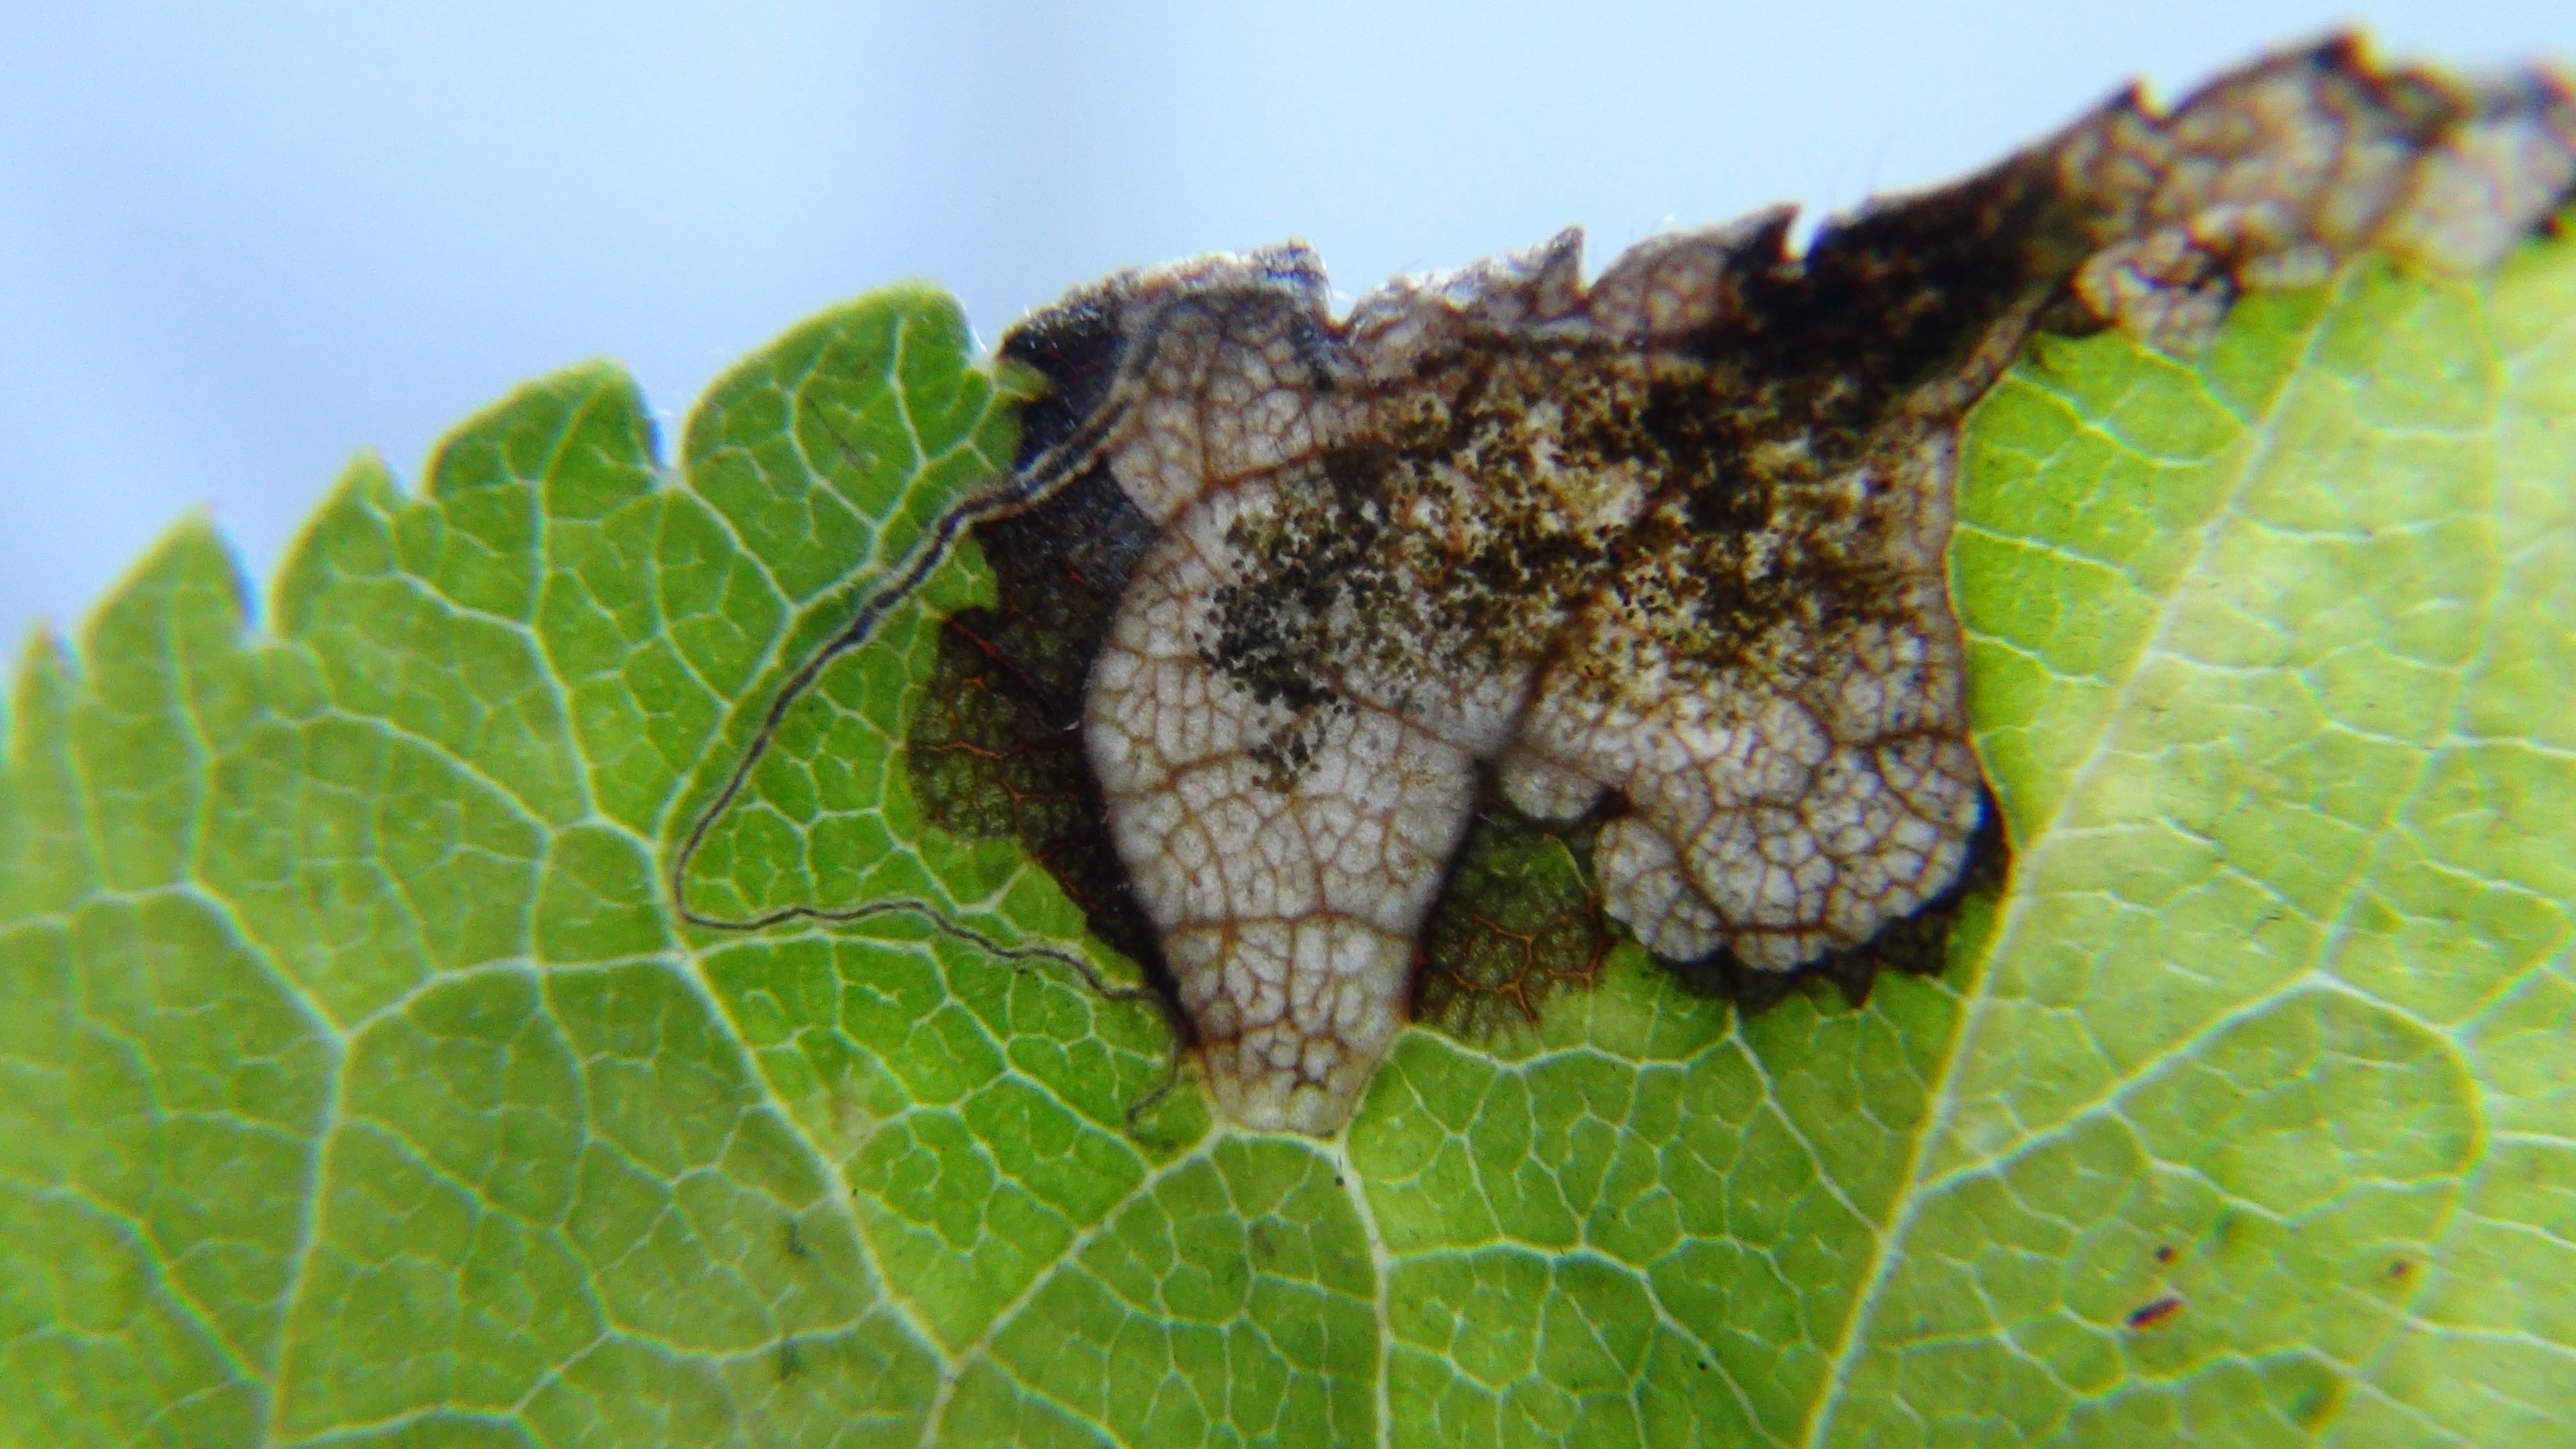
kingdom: Animalia
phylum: Arthropoda
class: Insecta
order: Lepidoptera
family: Nepticulidae
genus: Stigmella
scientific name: Stigmella plagicolella
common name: Scrubland pigmy
